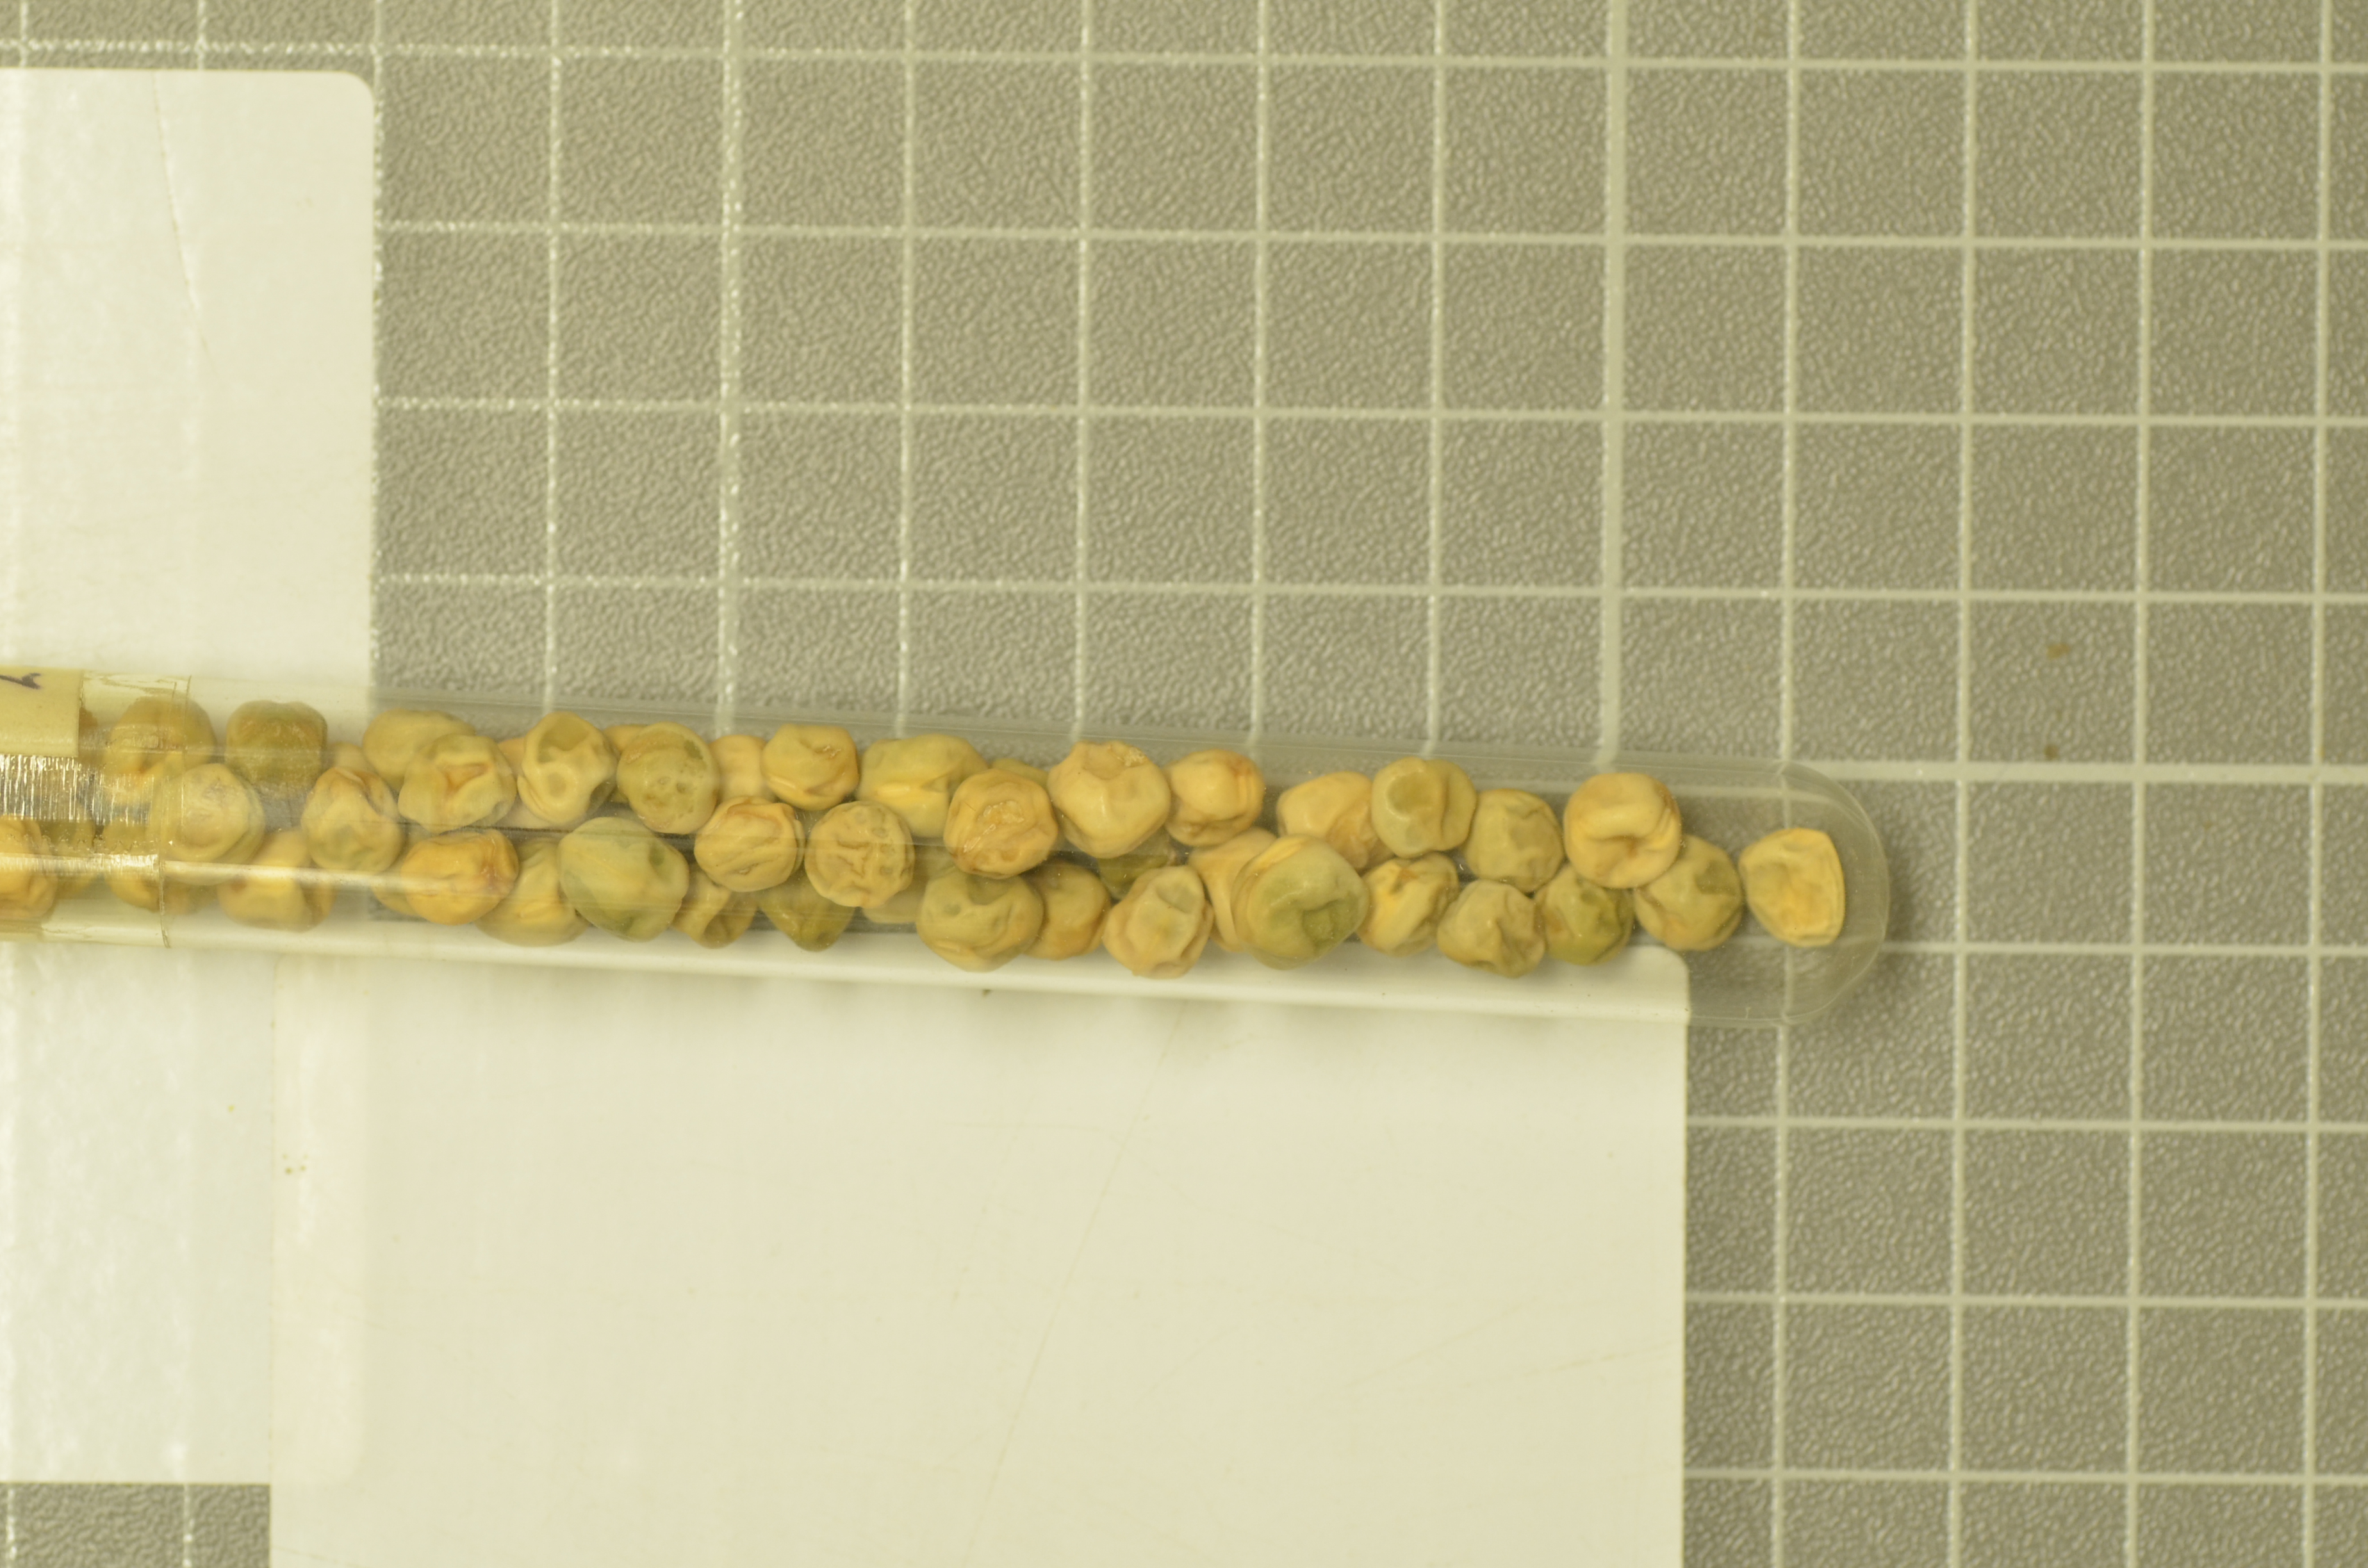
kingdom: Plantae
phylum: Tracheophyta
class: Magnoliopsida
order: Fabales
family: Fabaceae
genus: Lathyrus
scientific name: Lathyrus oleraceus
